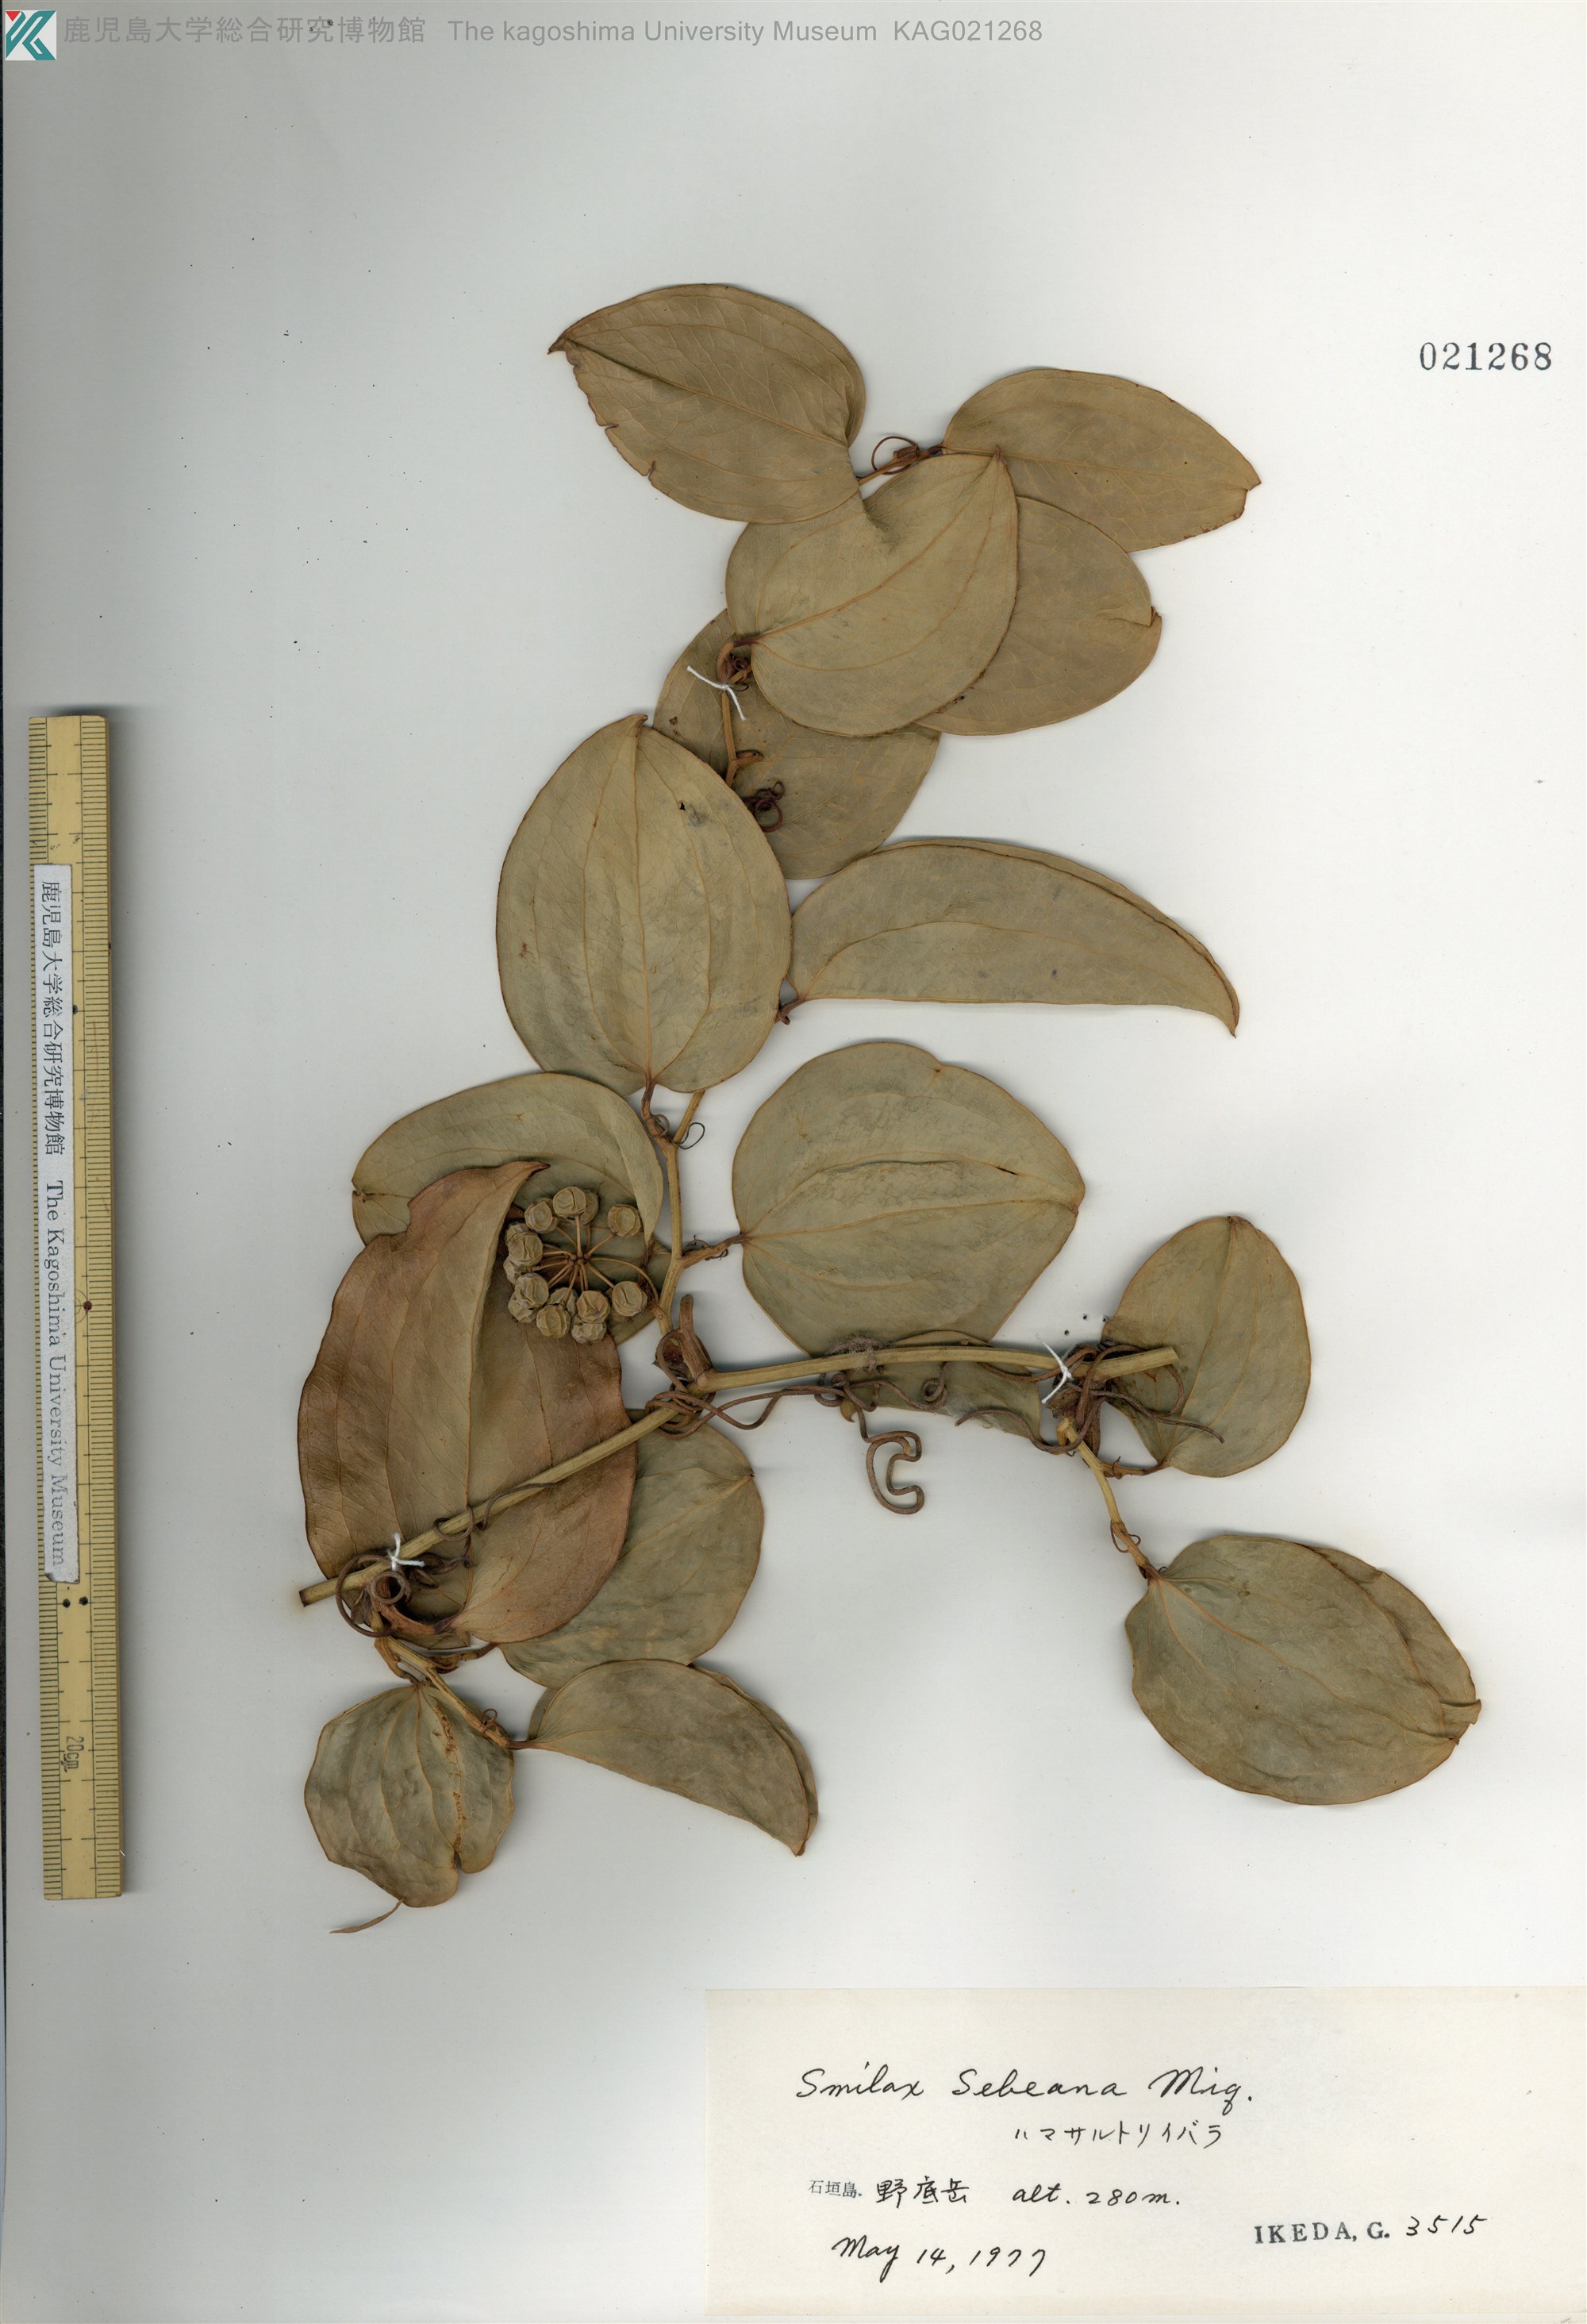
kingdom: Plantae
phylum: Tracheophyta
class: Liliopsida
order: Liliales
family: Smilacaceae
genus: Smilax
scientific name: Smilax sebeana
